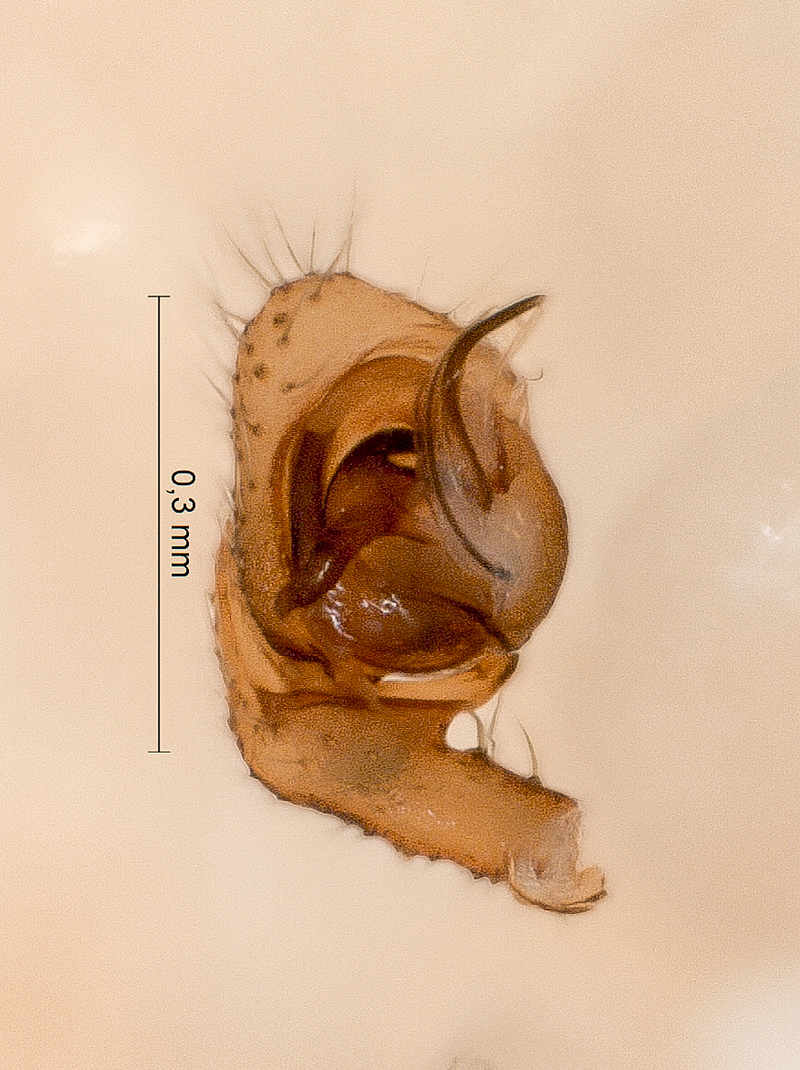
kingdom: Animalia
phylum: Arthropoda
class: Arachnida
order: Araneae
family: Linyphiidae
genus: Gonatium
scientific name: Gonatium paradoxum
